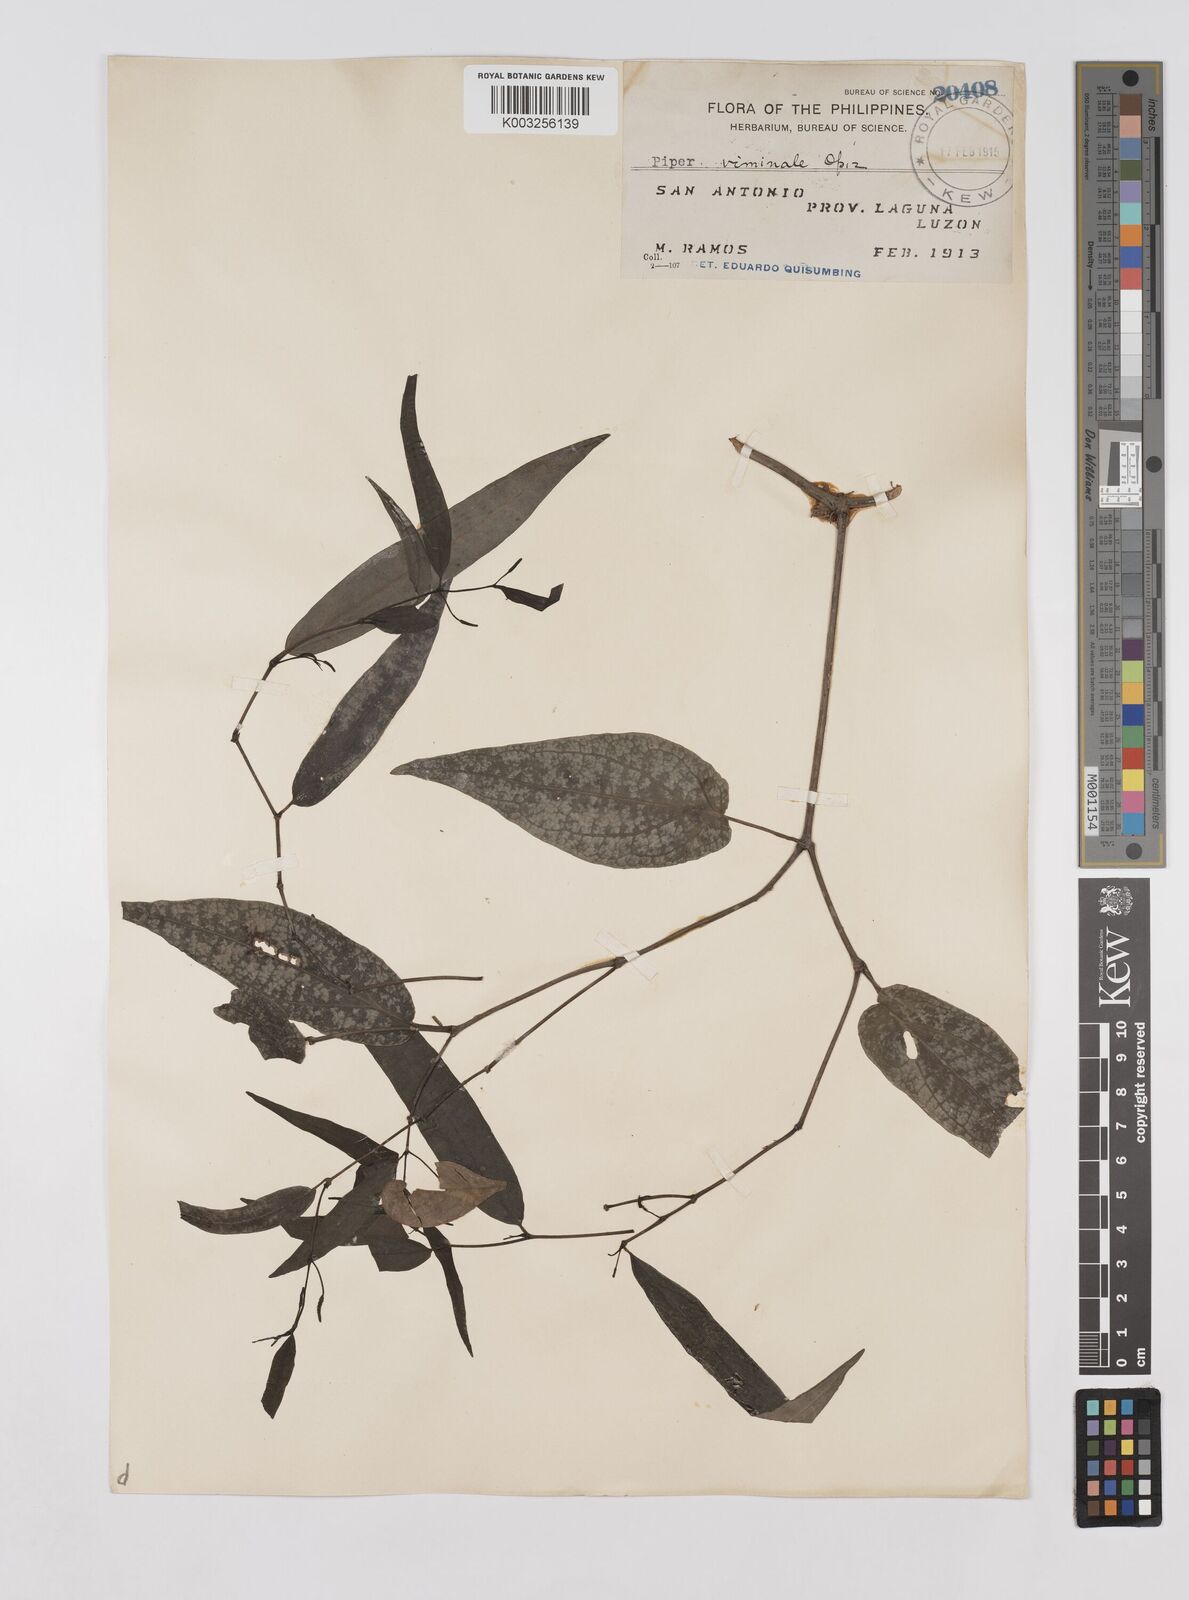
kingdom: Plantae
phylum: Tracheophyta
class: Magnoliopsida
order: Piperales
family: Piperaceae
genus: Piper
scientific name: Piper lanatum
